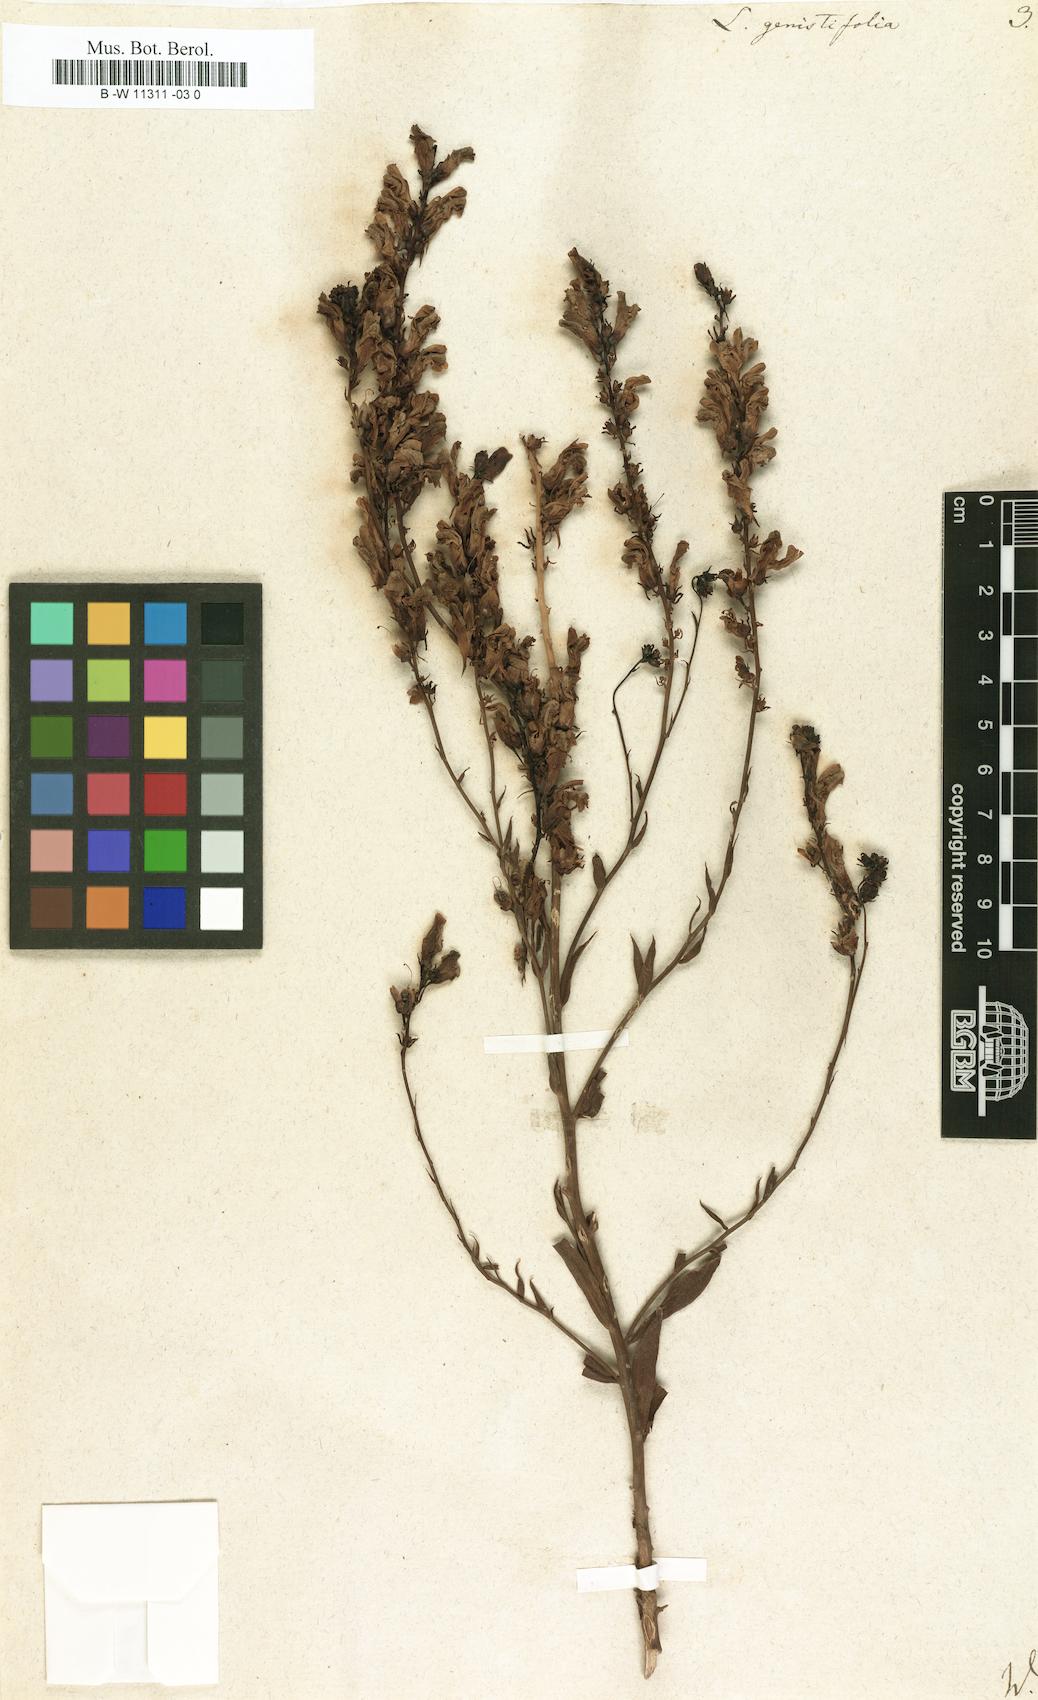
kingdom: Plantae
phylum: Tracheophyta
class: Magnoliopsida
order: Lamiales
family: Plantaginaceae
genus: Linaria
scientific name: Linaria genistifolia
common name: Broomleaf toadflax
